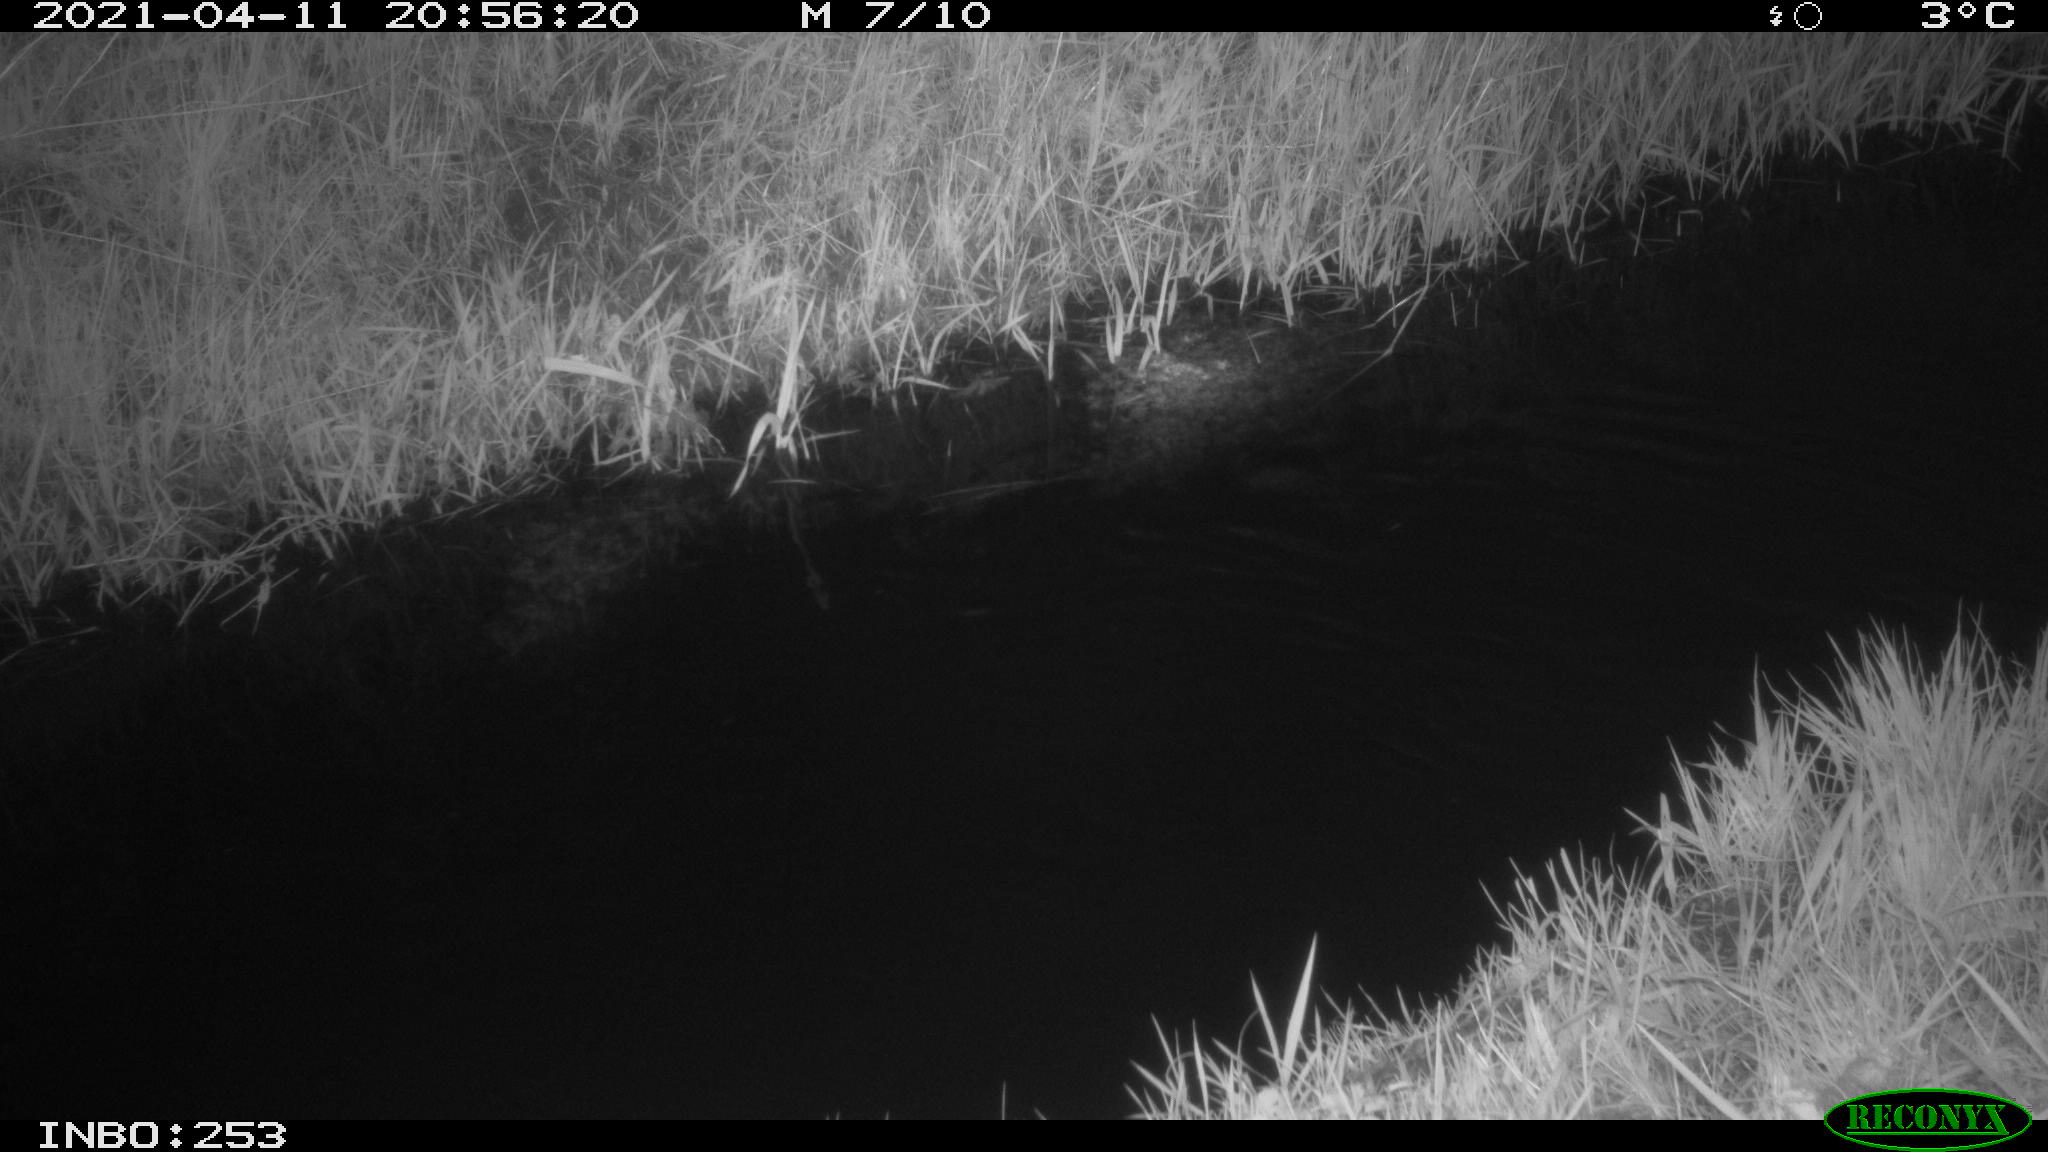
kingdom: Animalia
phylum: Chordata
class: Aves
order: Anseriformes
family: Anatidae
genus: Anas
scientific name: Anas platyrhynchos
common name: Mallard
